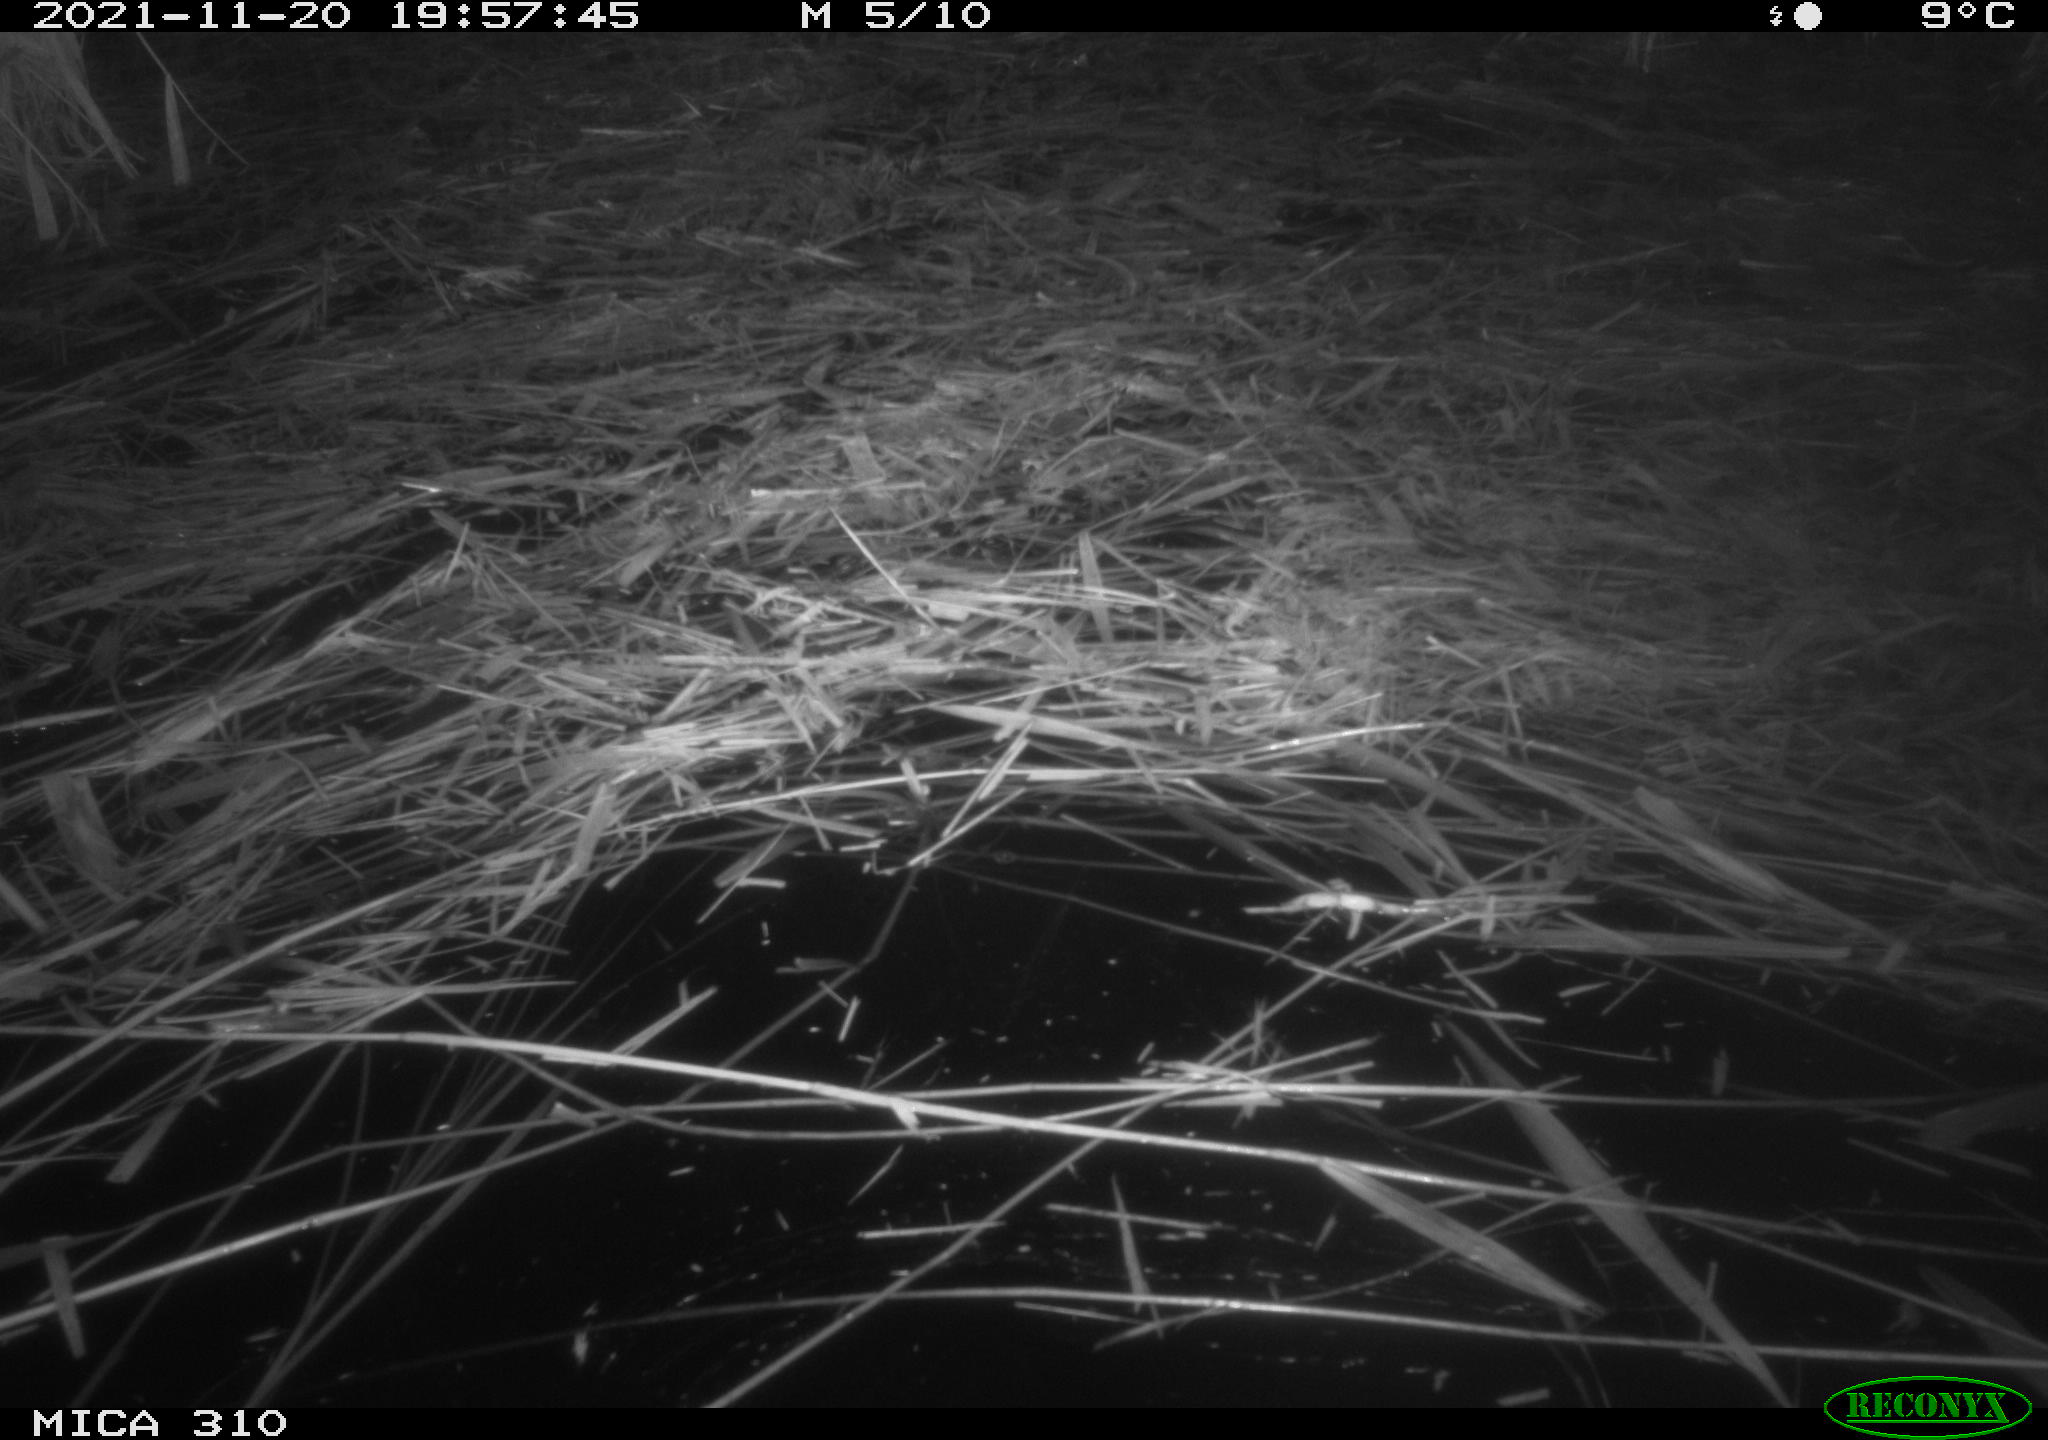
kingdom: Animalia
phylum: Chordata
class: Mammalia
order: Rodentia
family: Muridae
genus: Rattus
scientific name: Rattus norvegicus
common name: Brown rat
